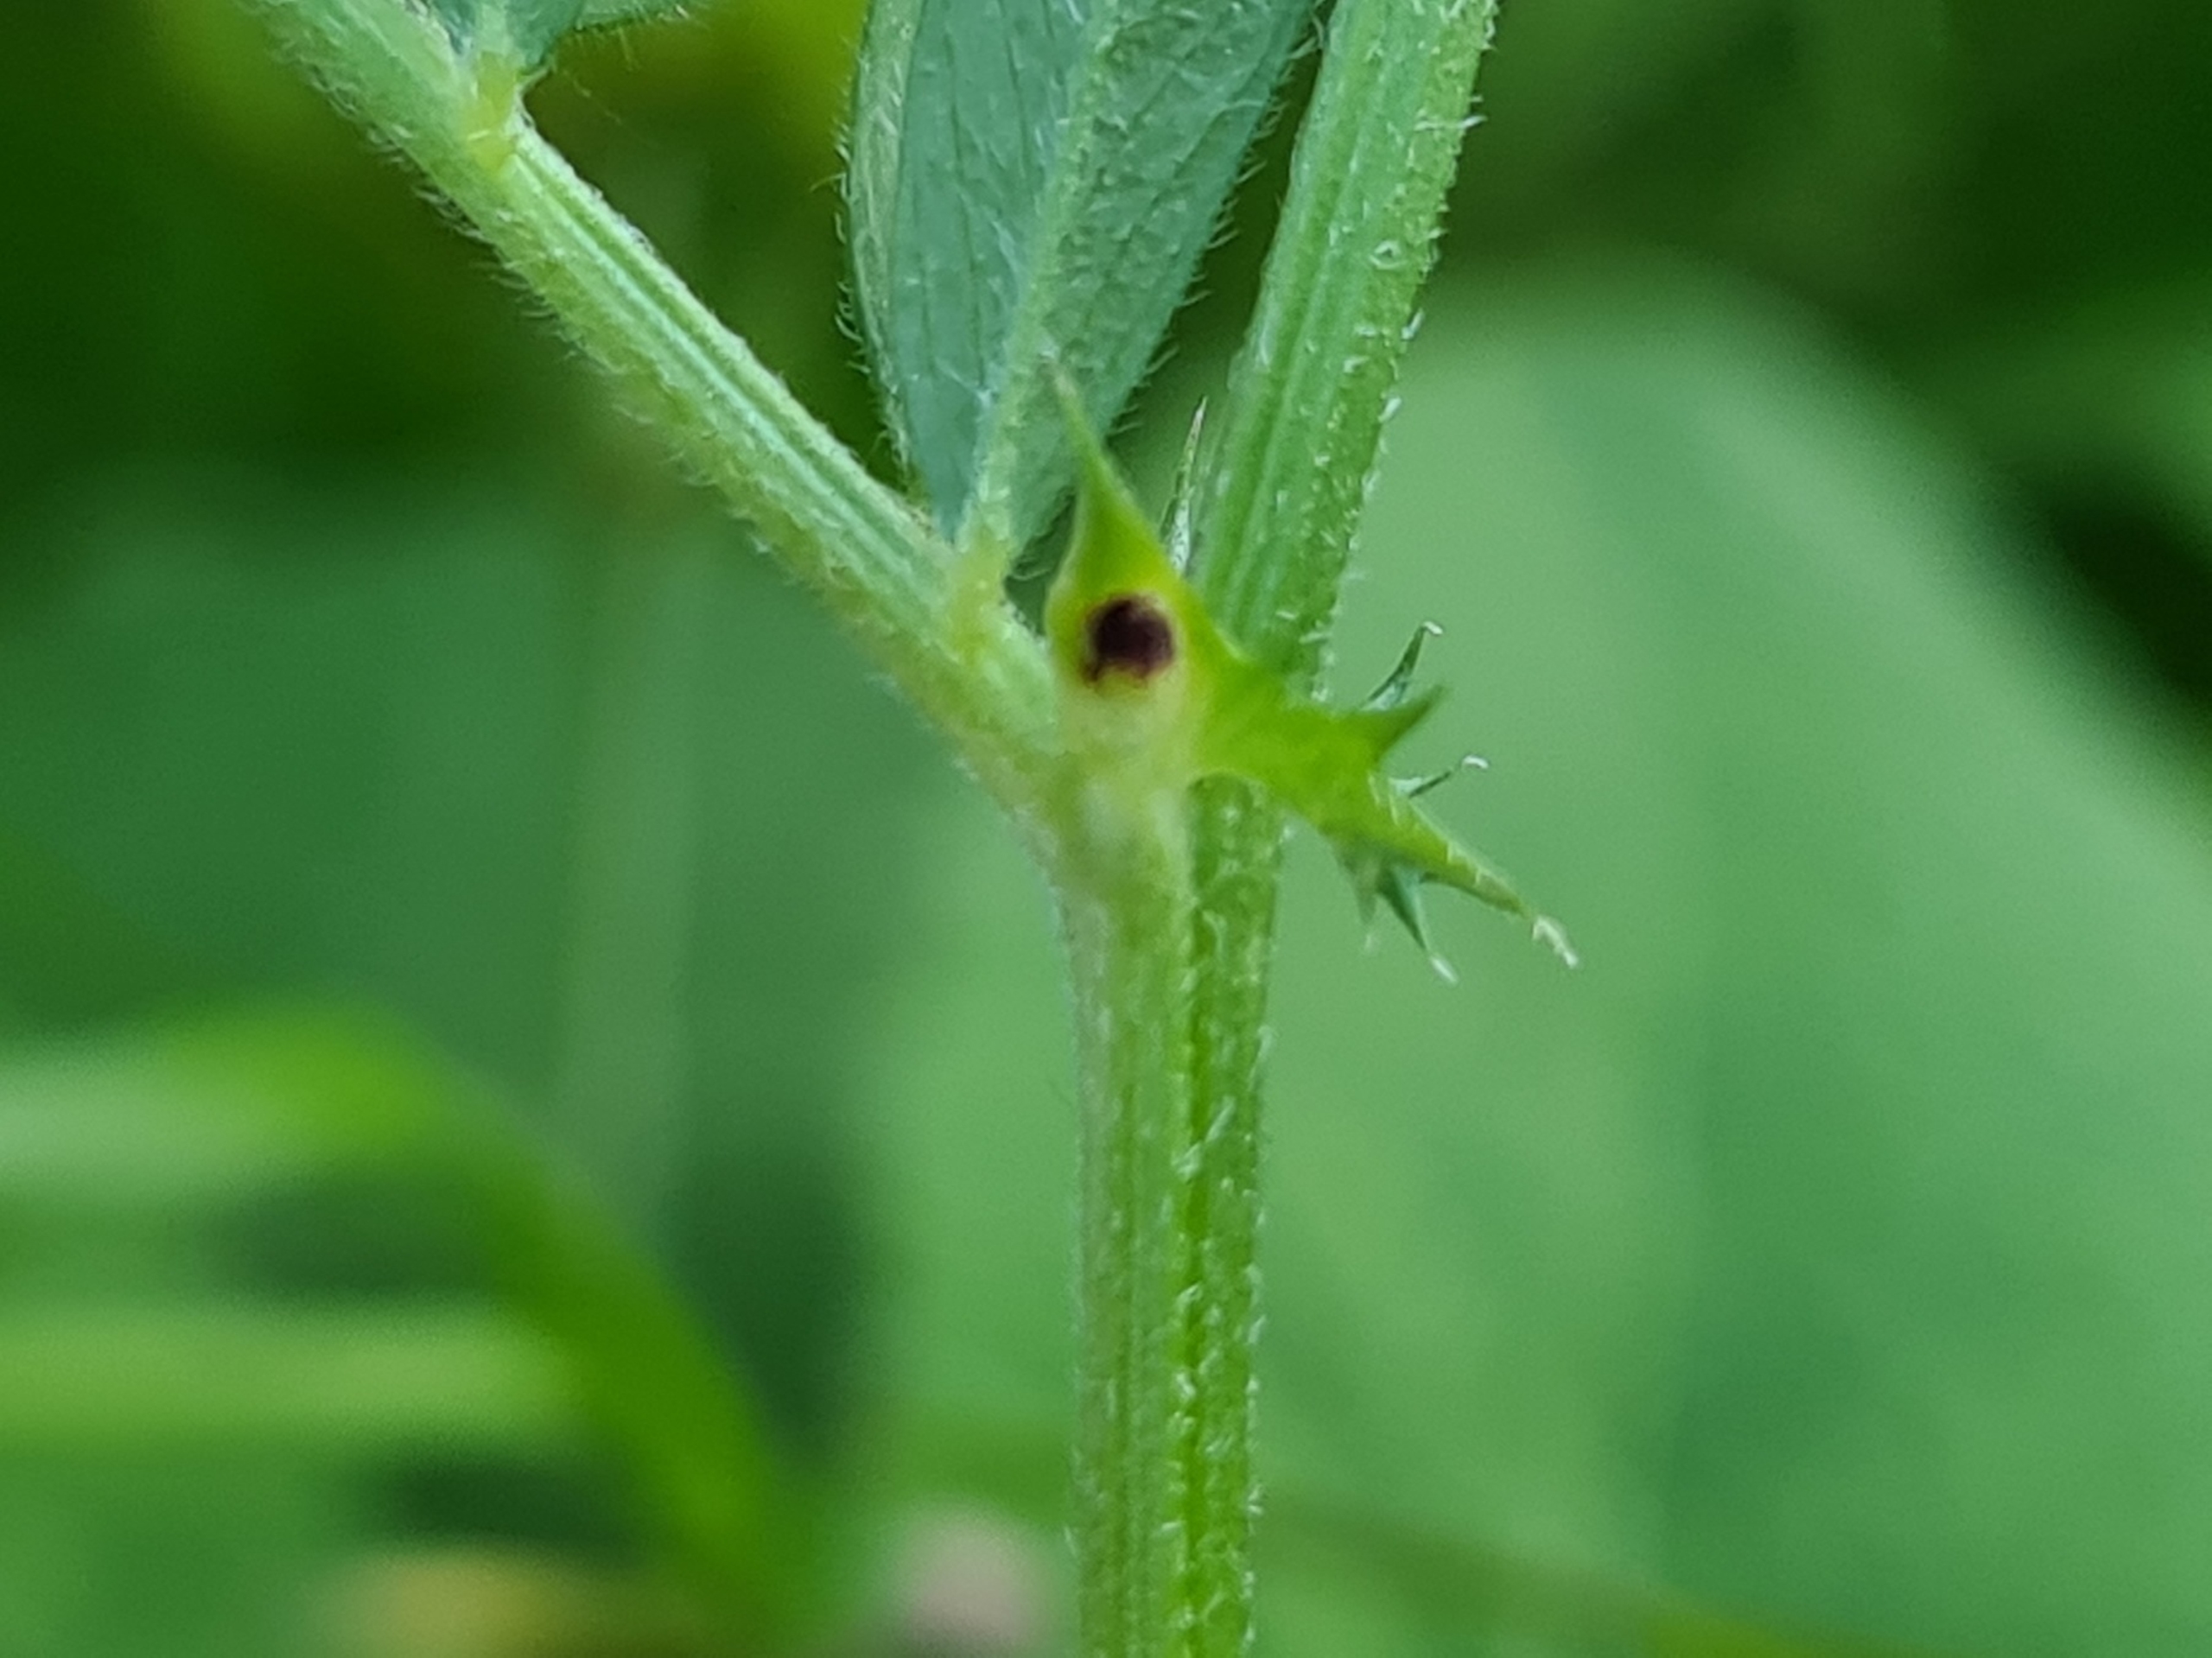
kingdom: Plantae
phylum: Tracheophyta
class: Magnoliopsida
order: Fabales
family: Fabaceae
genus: Vicia
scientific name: Vicia sativa
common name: Smalbladet vikke
